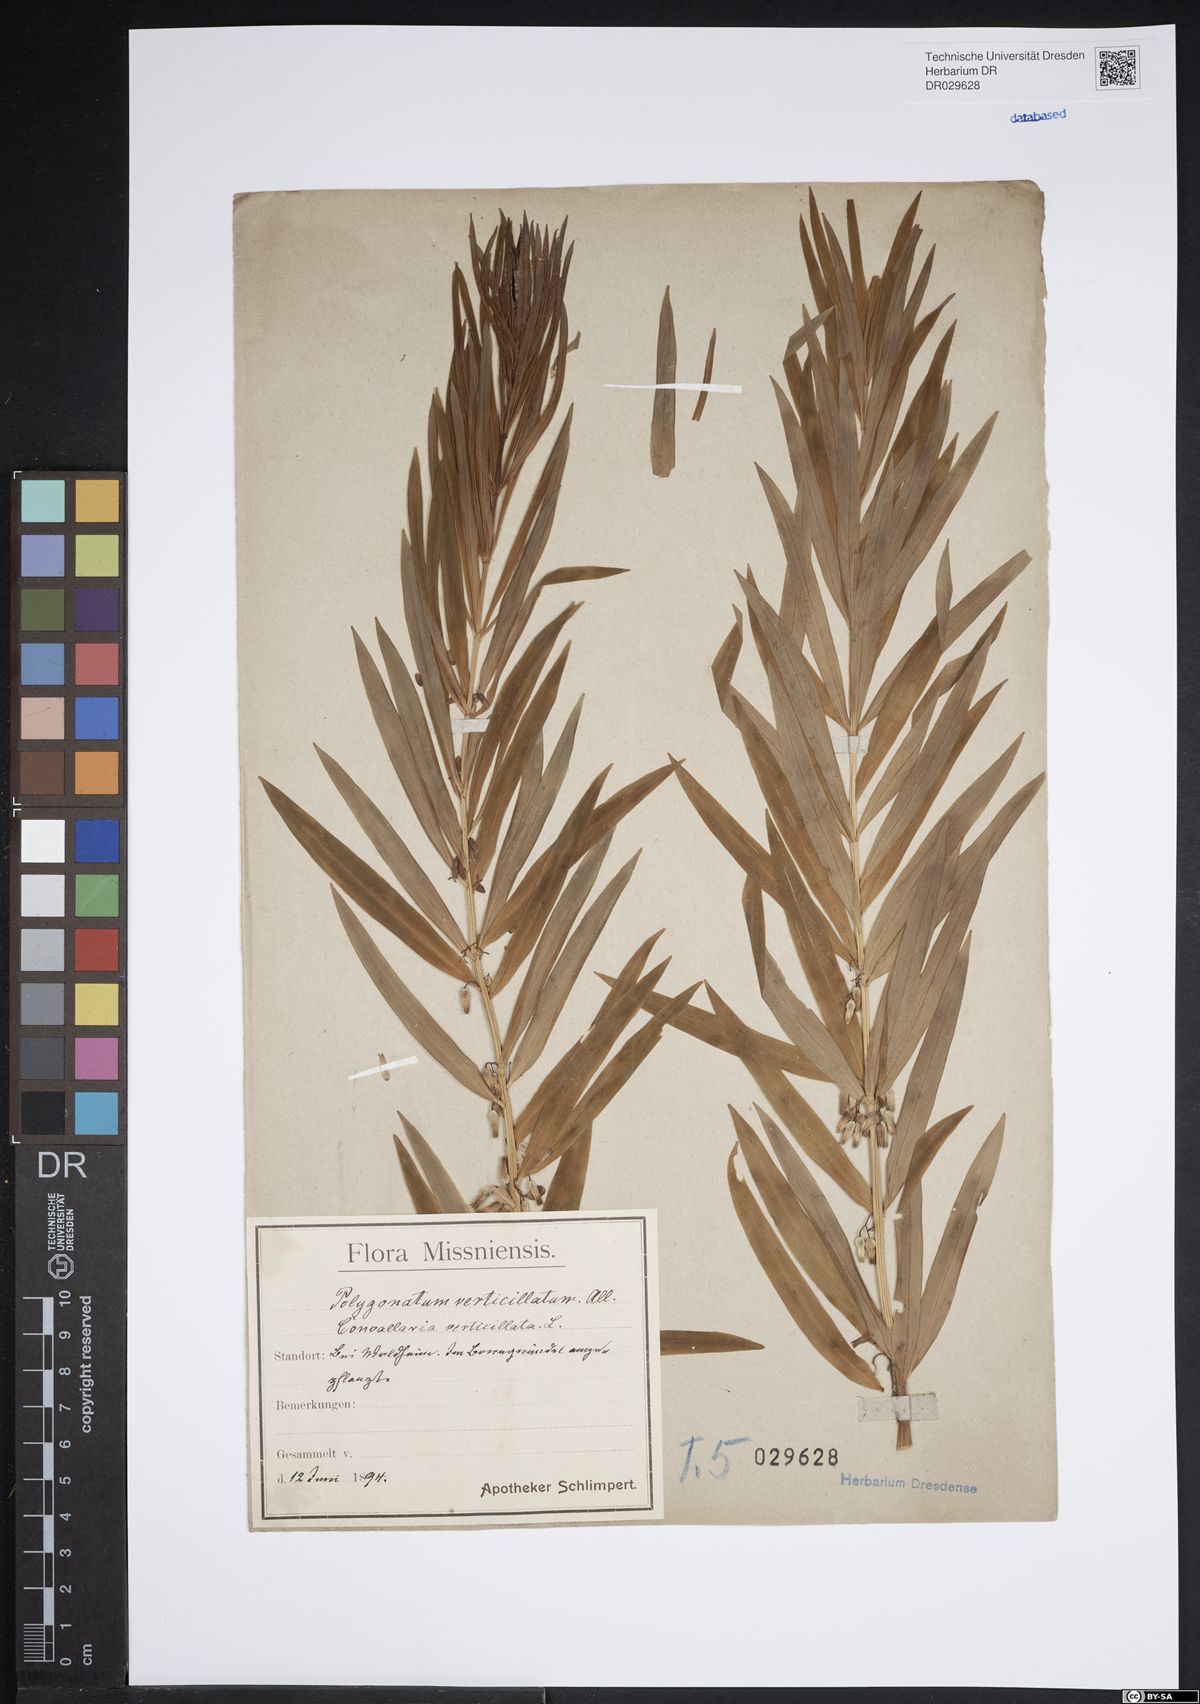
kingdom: Plantae
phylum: Tracheophyta
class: Liliopsida
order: Asparagales
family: Asparagaceae
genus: Polygonatum
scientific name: Polygonatum verticillatum
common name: Whorled solomon's-seal
